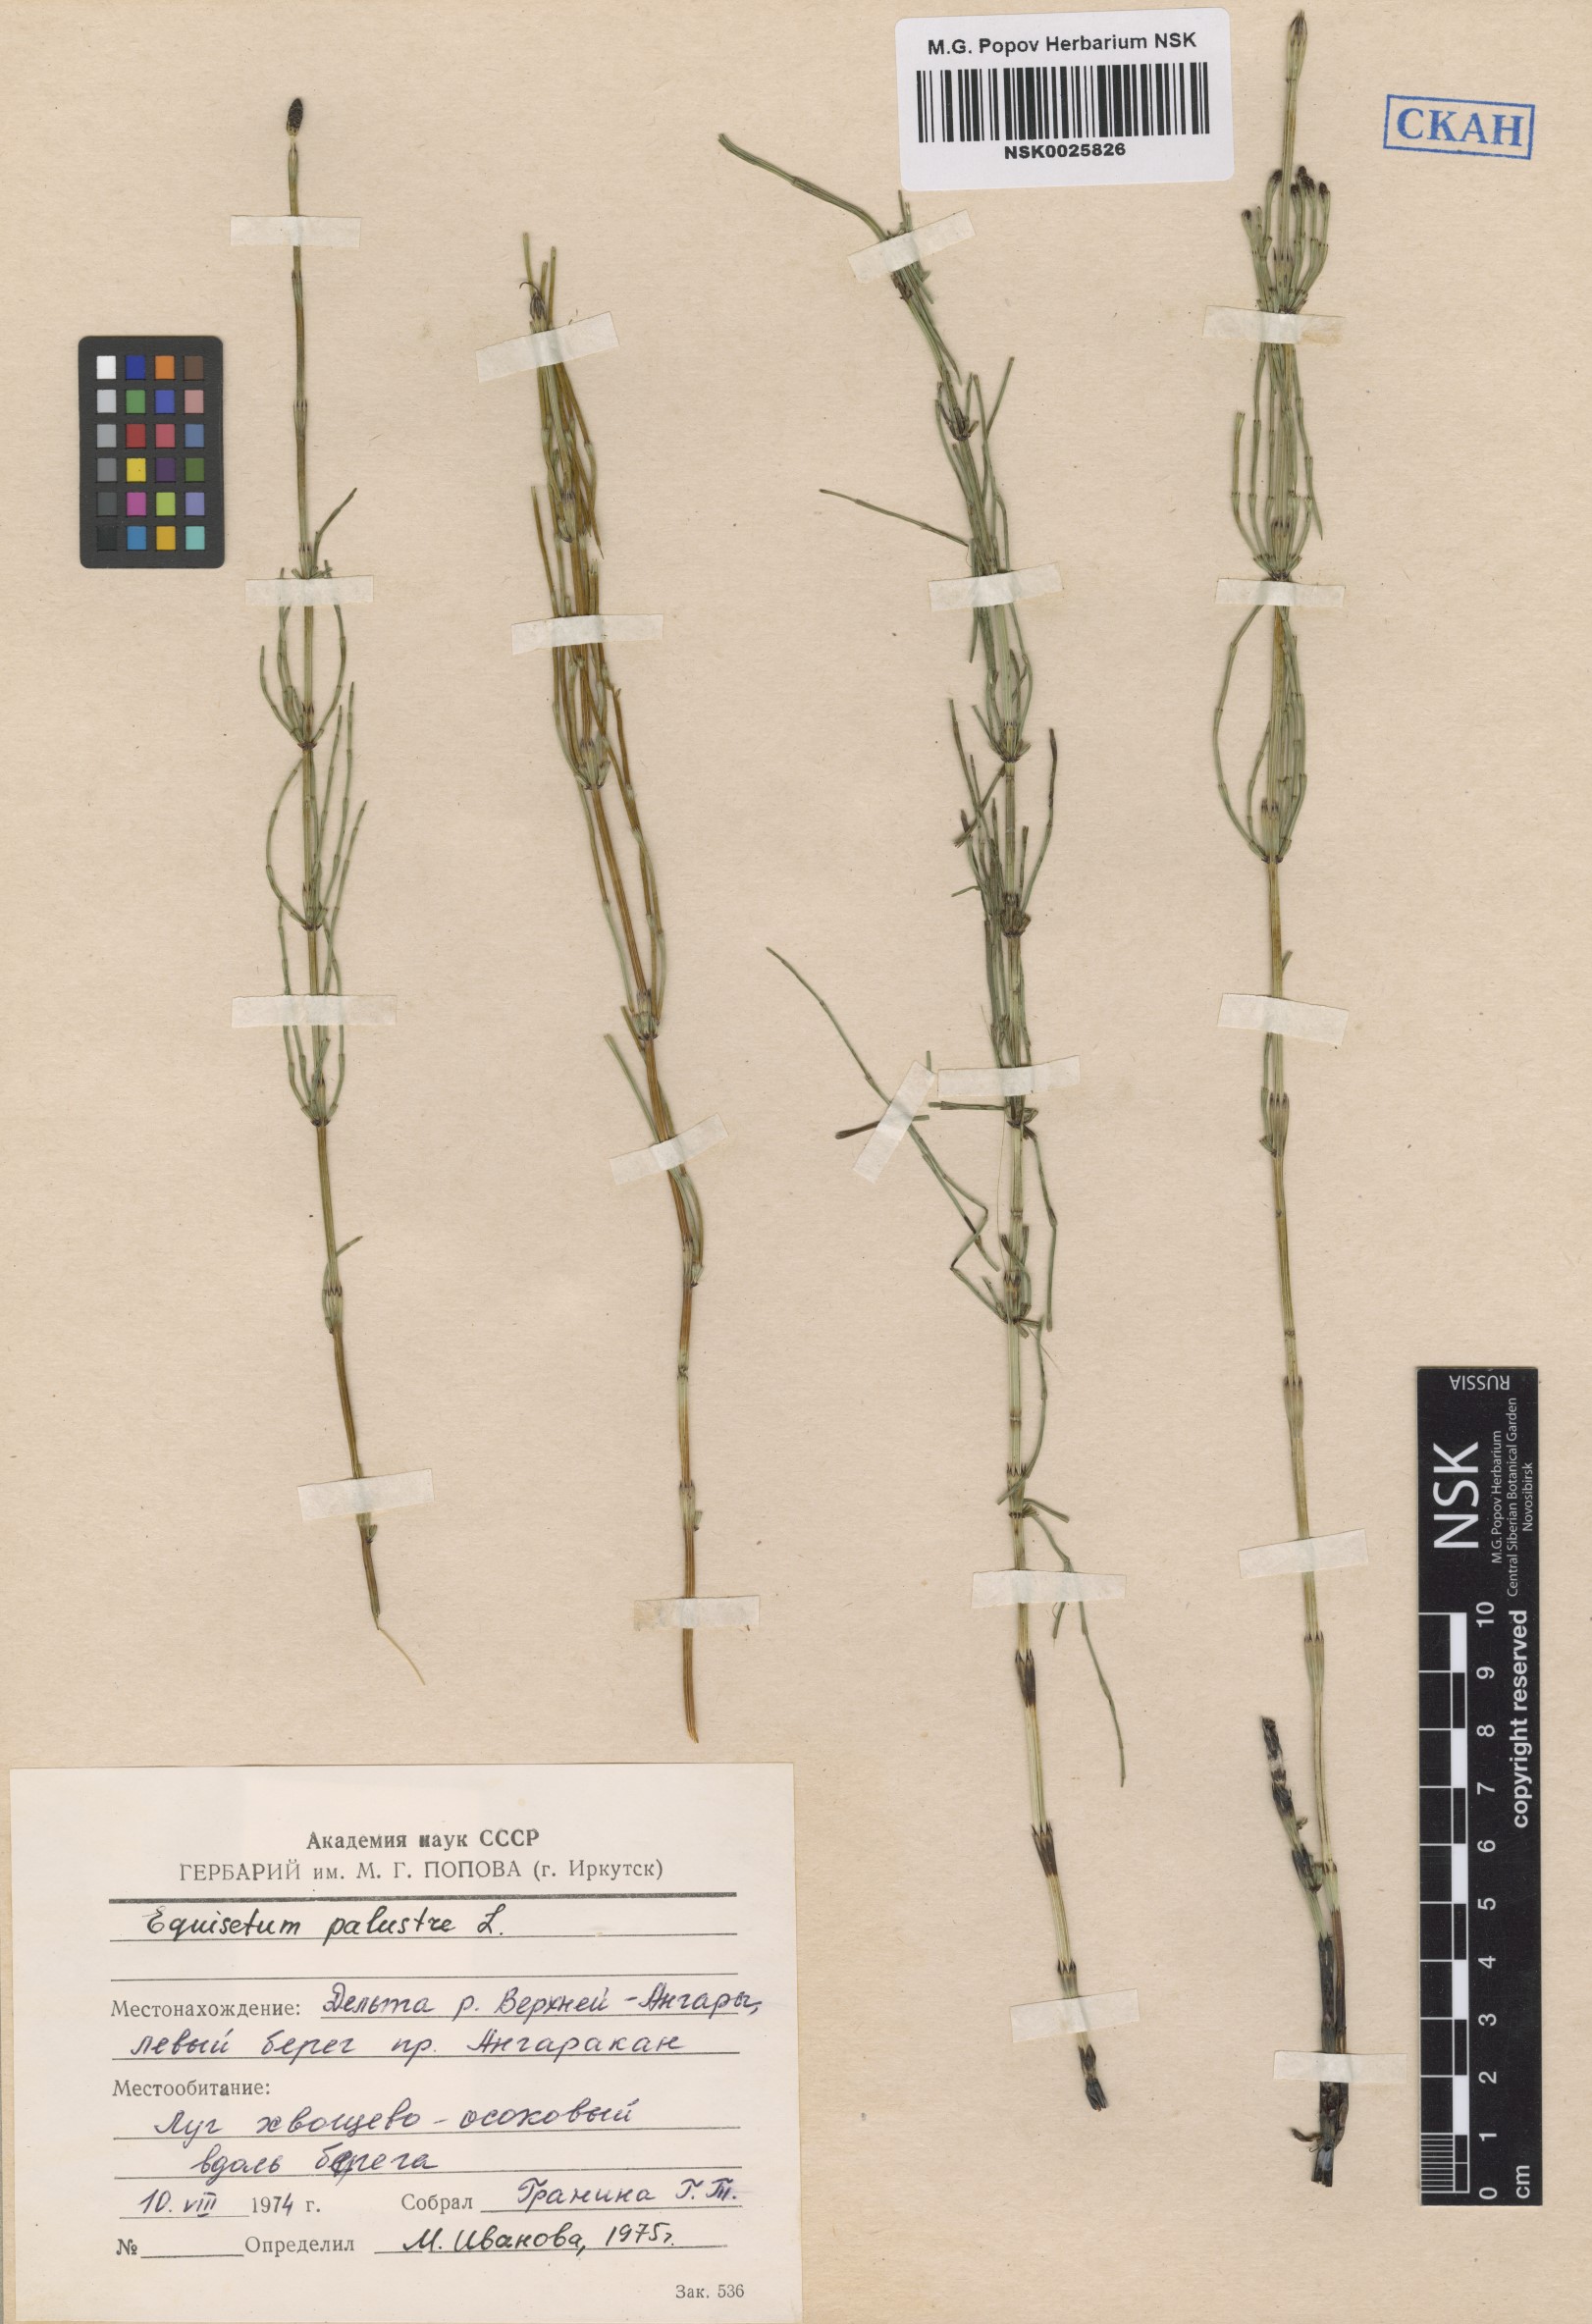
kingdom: Plantae
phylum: Tracheophyta
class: Polypodiopsida
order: Equisetales
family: Equisetaceae
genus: Equisetum
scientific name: Equisetum palustre
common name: Marsh horsetail
